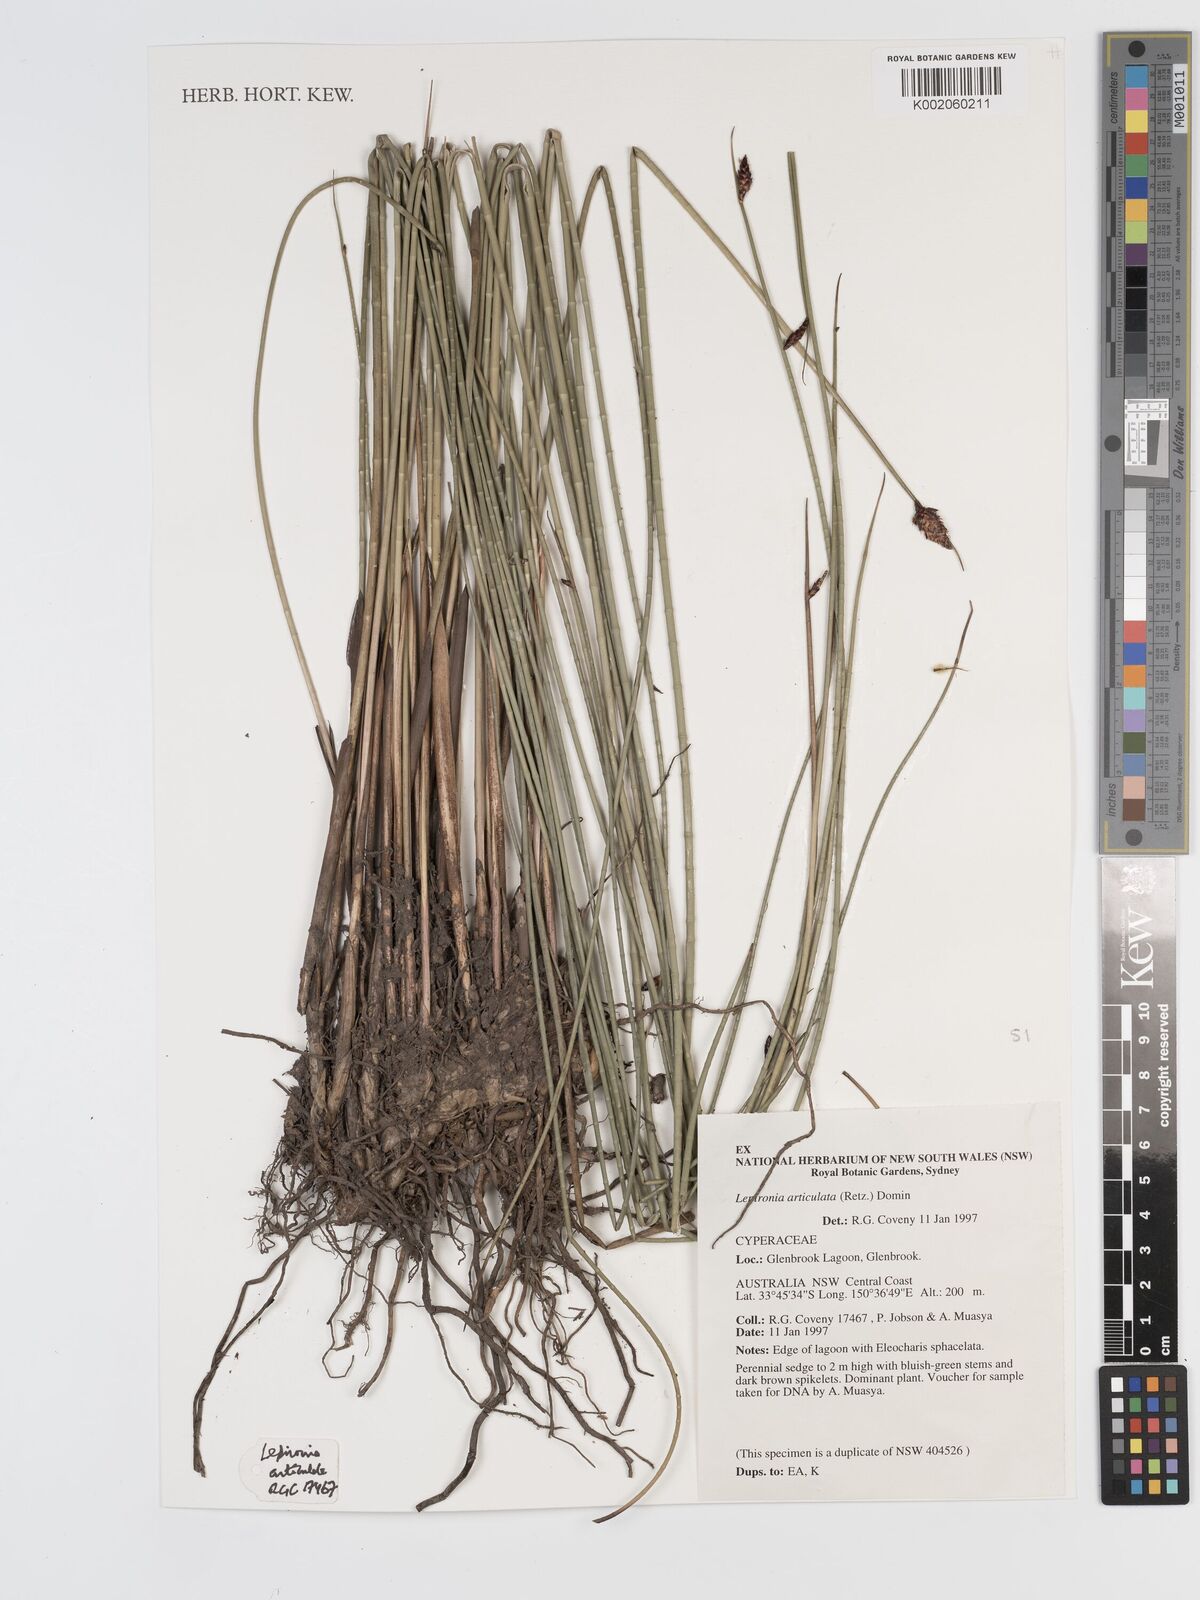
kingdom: Plantae
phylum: Tracheophyta
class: Liliopsida
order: Poales
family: Cyperaceae
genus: Lepironia
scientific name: Lepironia articulata
